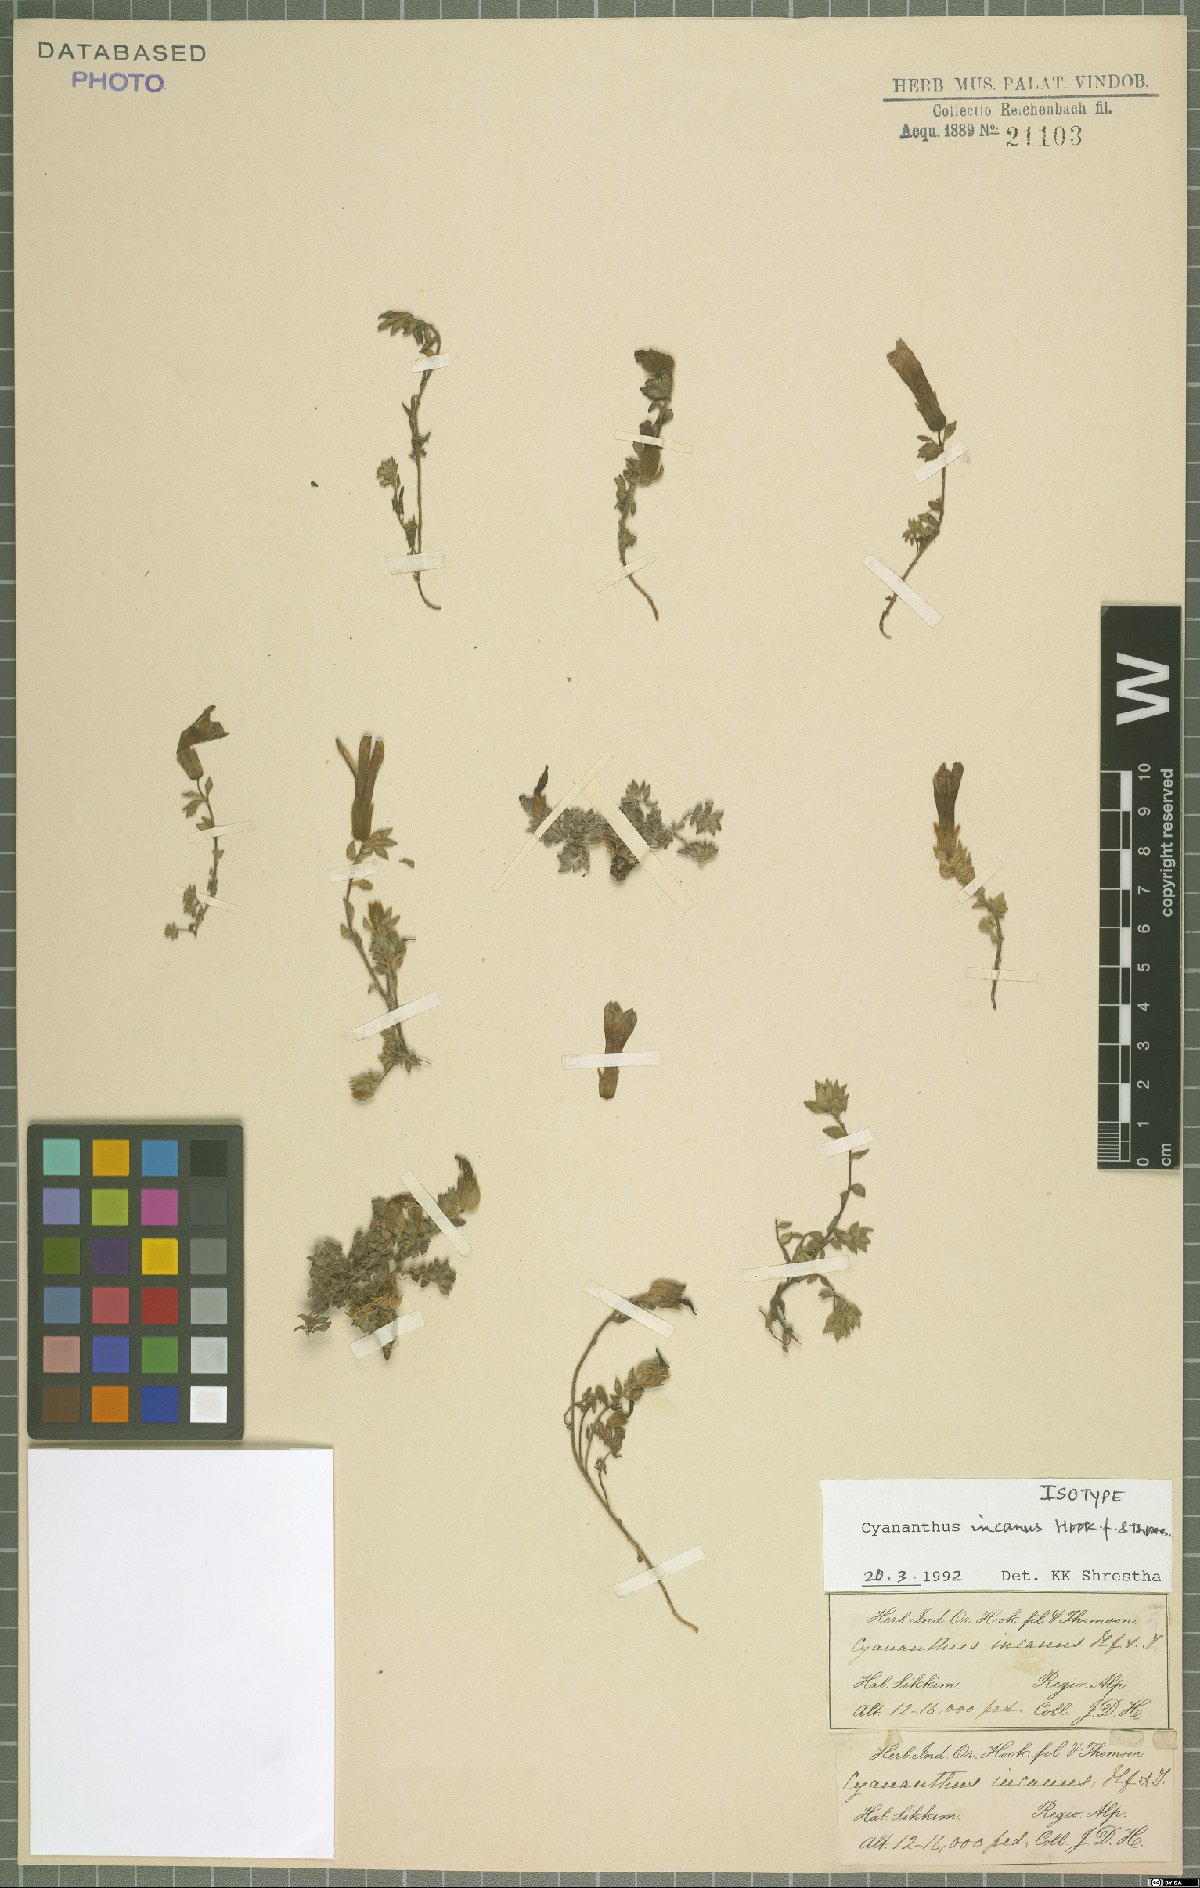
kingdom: Plantae
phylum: Tracheophyta
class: Magnoliopsida
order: Asterales
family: Campanulaceae
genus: Cyananthus
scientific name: Cyananthus incanus
